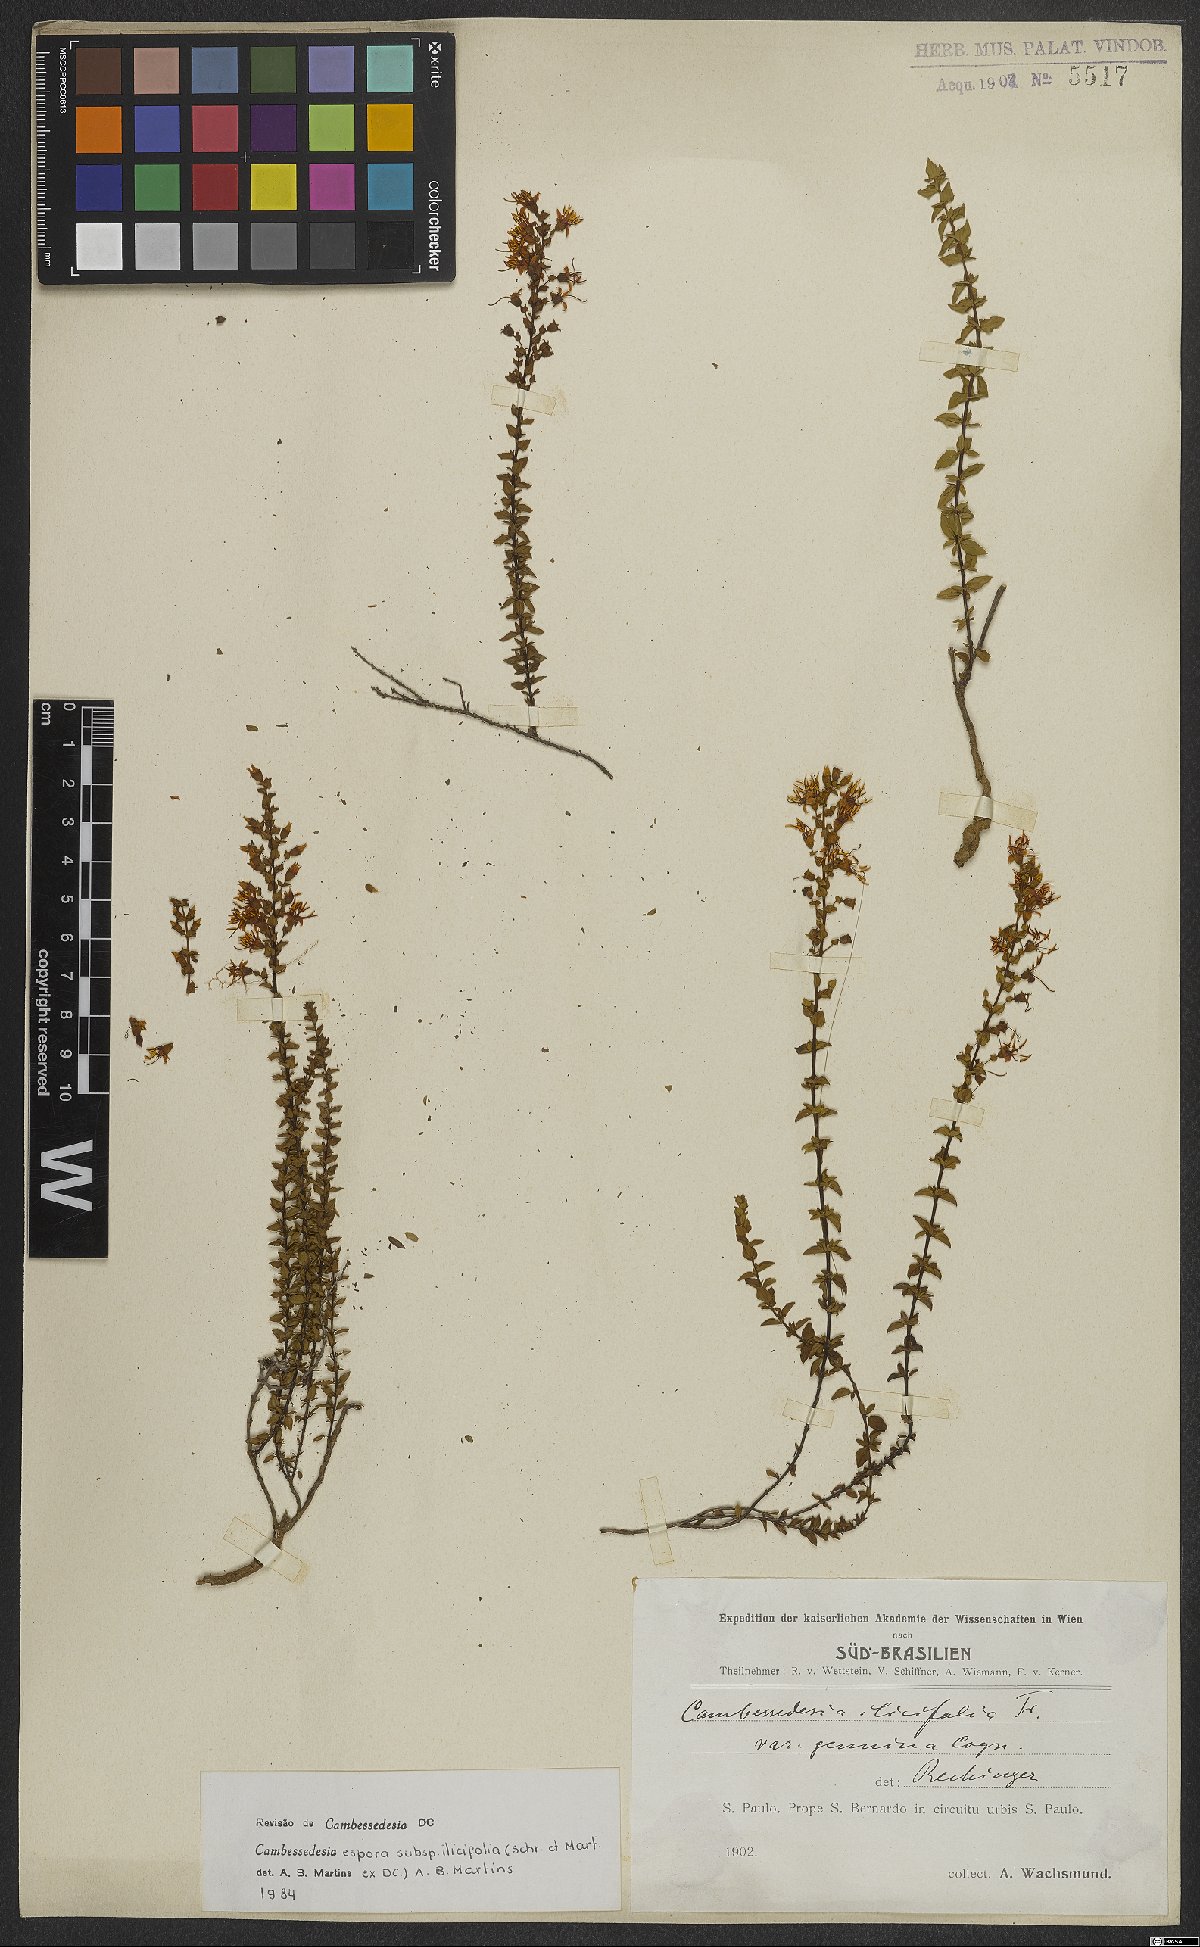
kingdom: Plantae
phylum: Tracheophyta
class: Magnoliopsida
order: Myrtales
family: Melastomataceae
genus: Cambessedesia
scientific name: Cambessedesia espora
